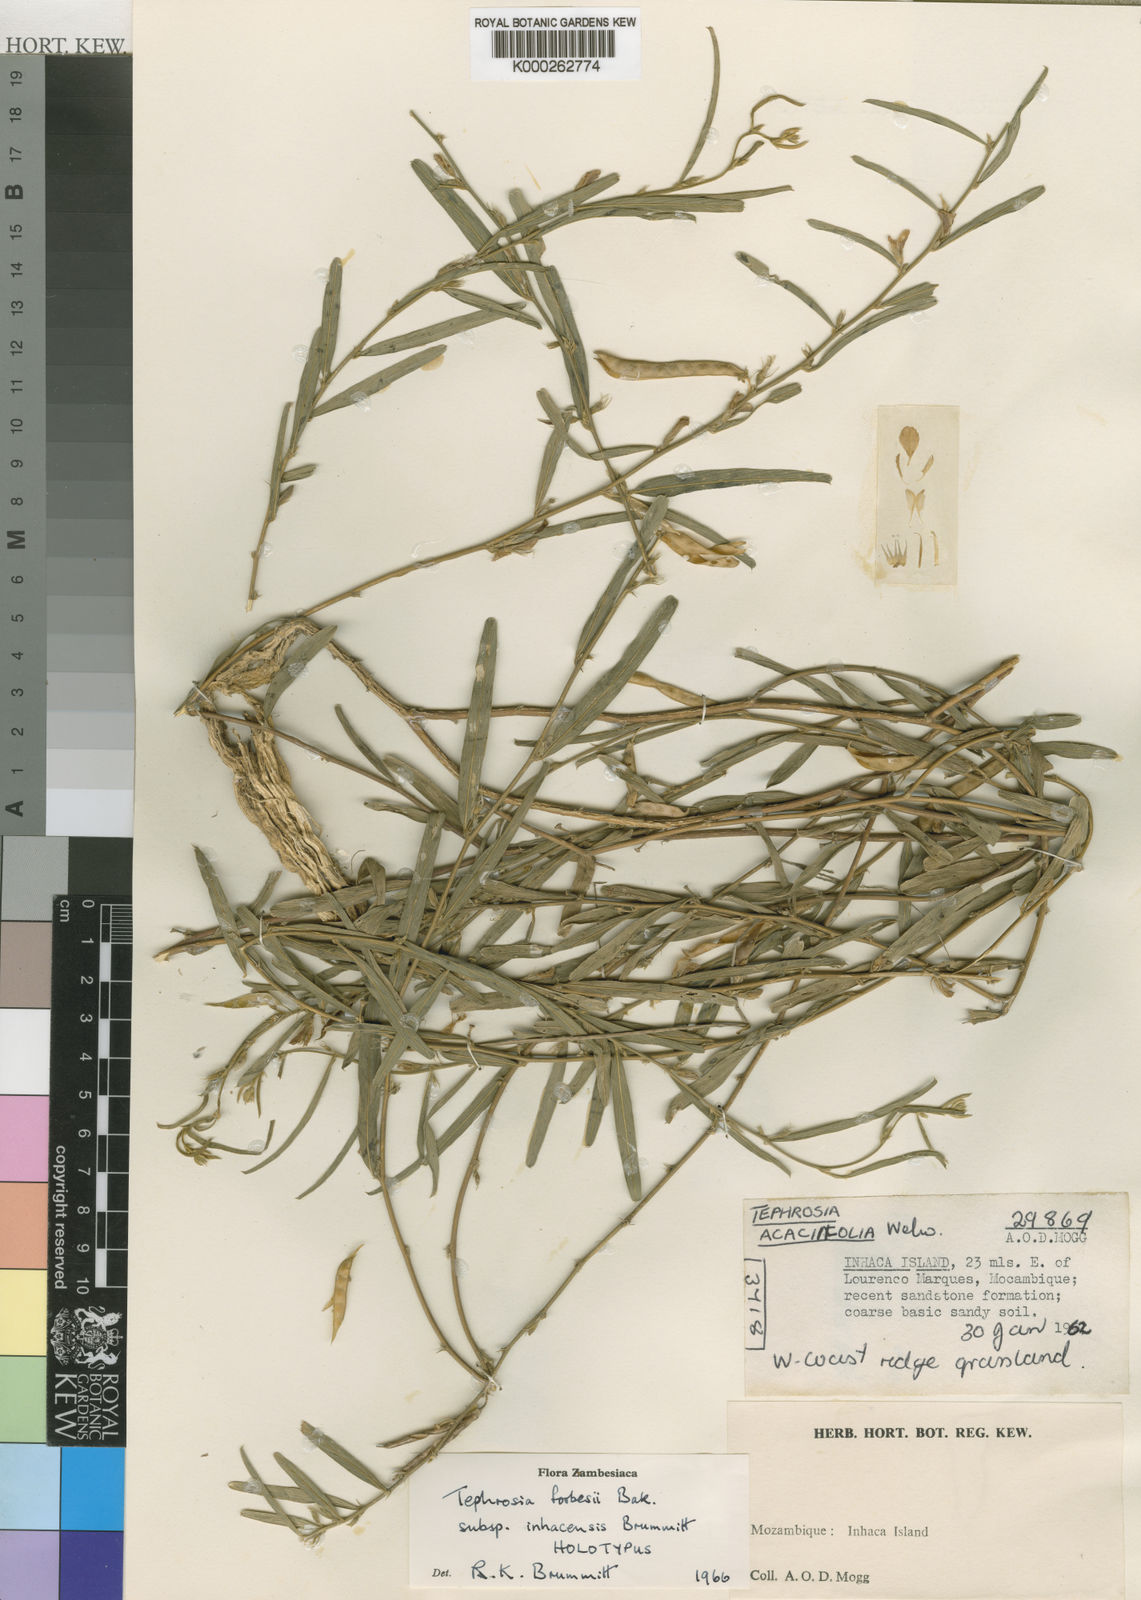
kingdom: Plantae
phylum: Tracheophyta
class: Magnoliopsida
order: Fabales
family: Fabaceae
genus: Tephrosia
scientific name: Tephrosia forbesii
